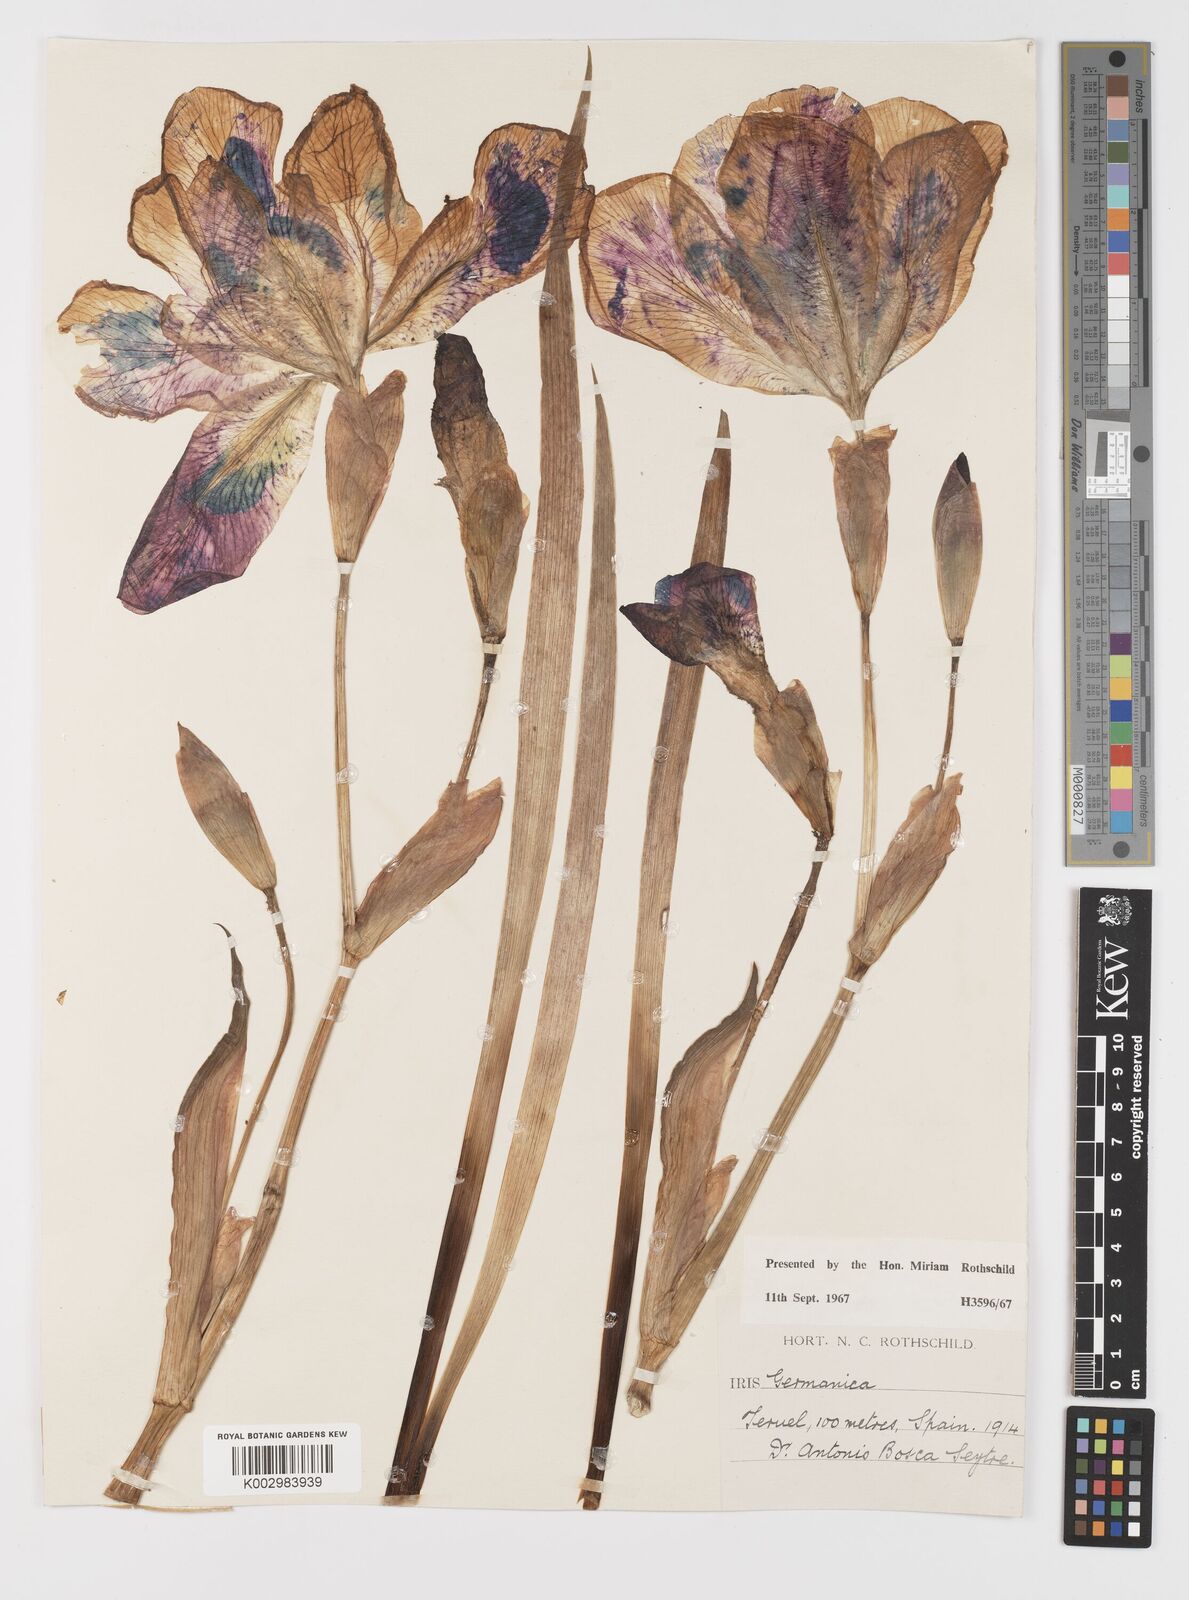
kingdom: Plantae
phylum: Tracheophyta
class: Liliopsida
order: Asparagales
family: Iridaceae
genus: Iris
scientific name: Iris germanica
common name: German iris
